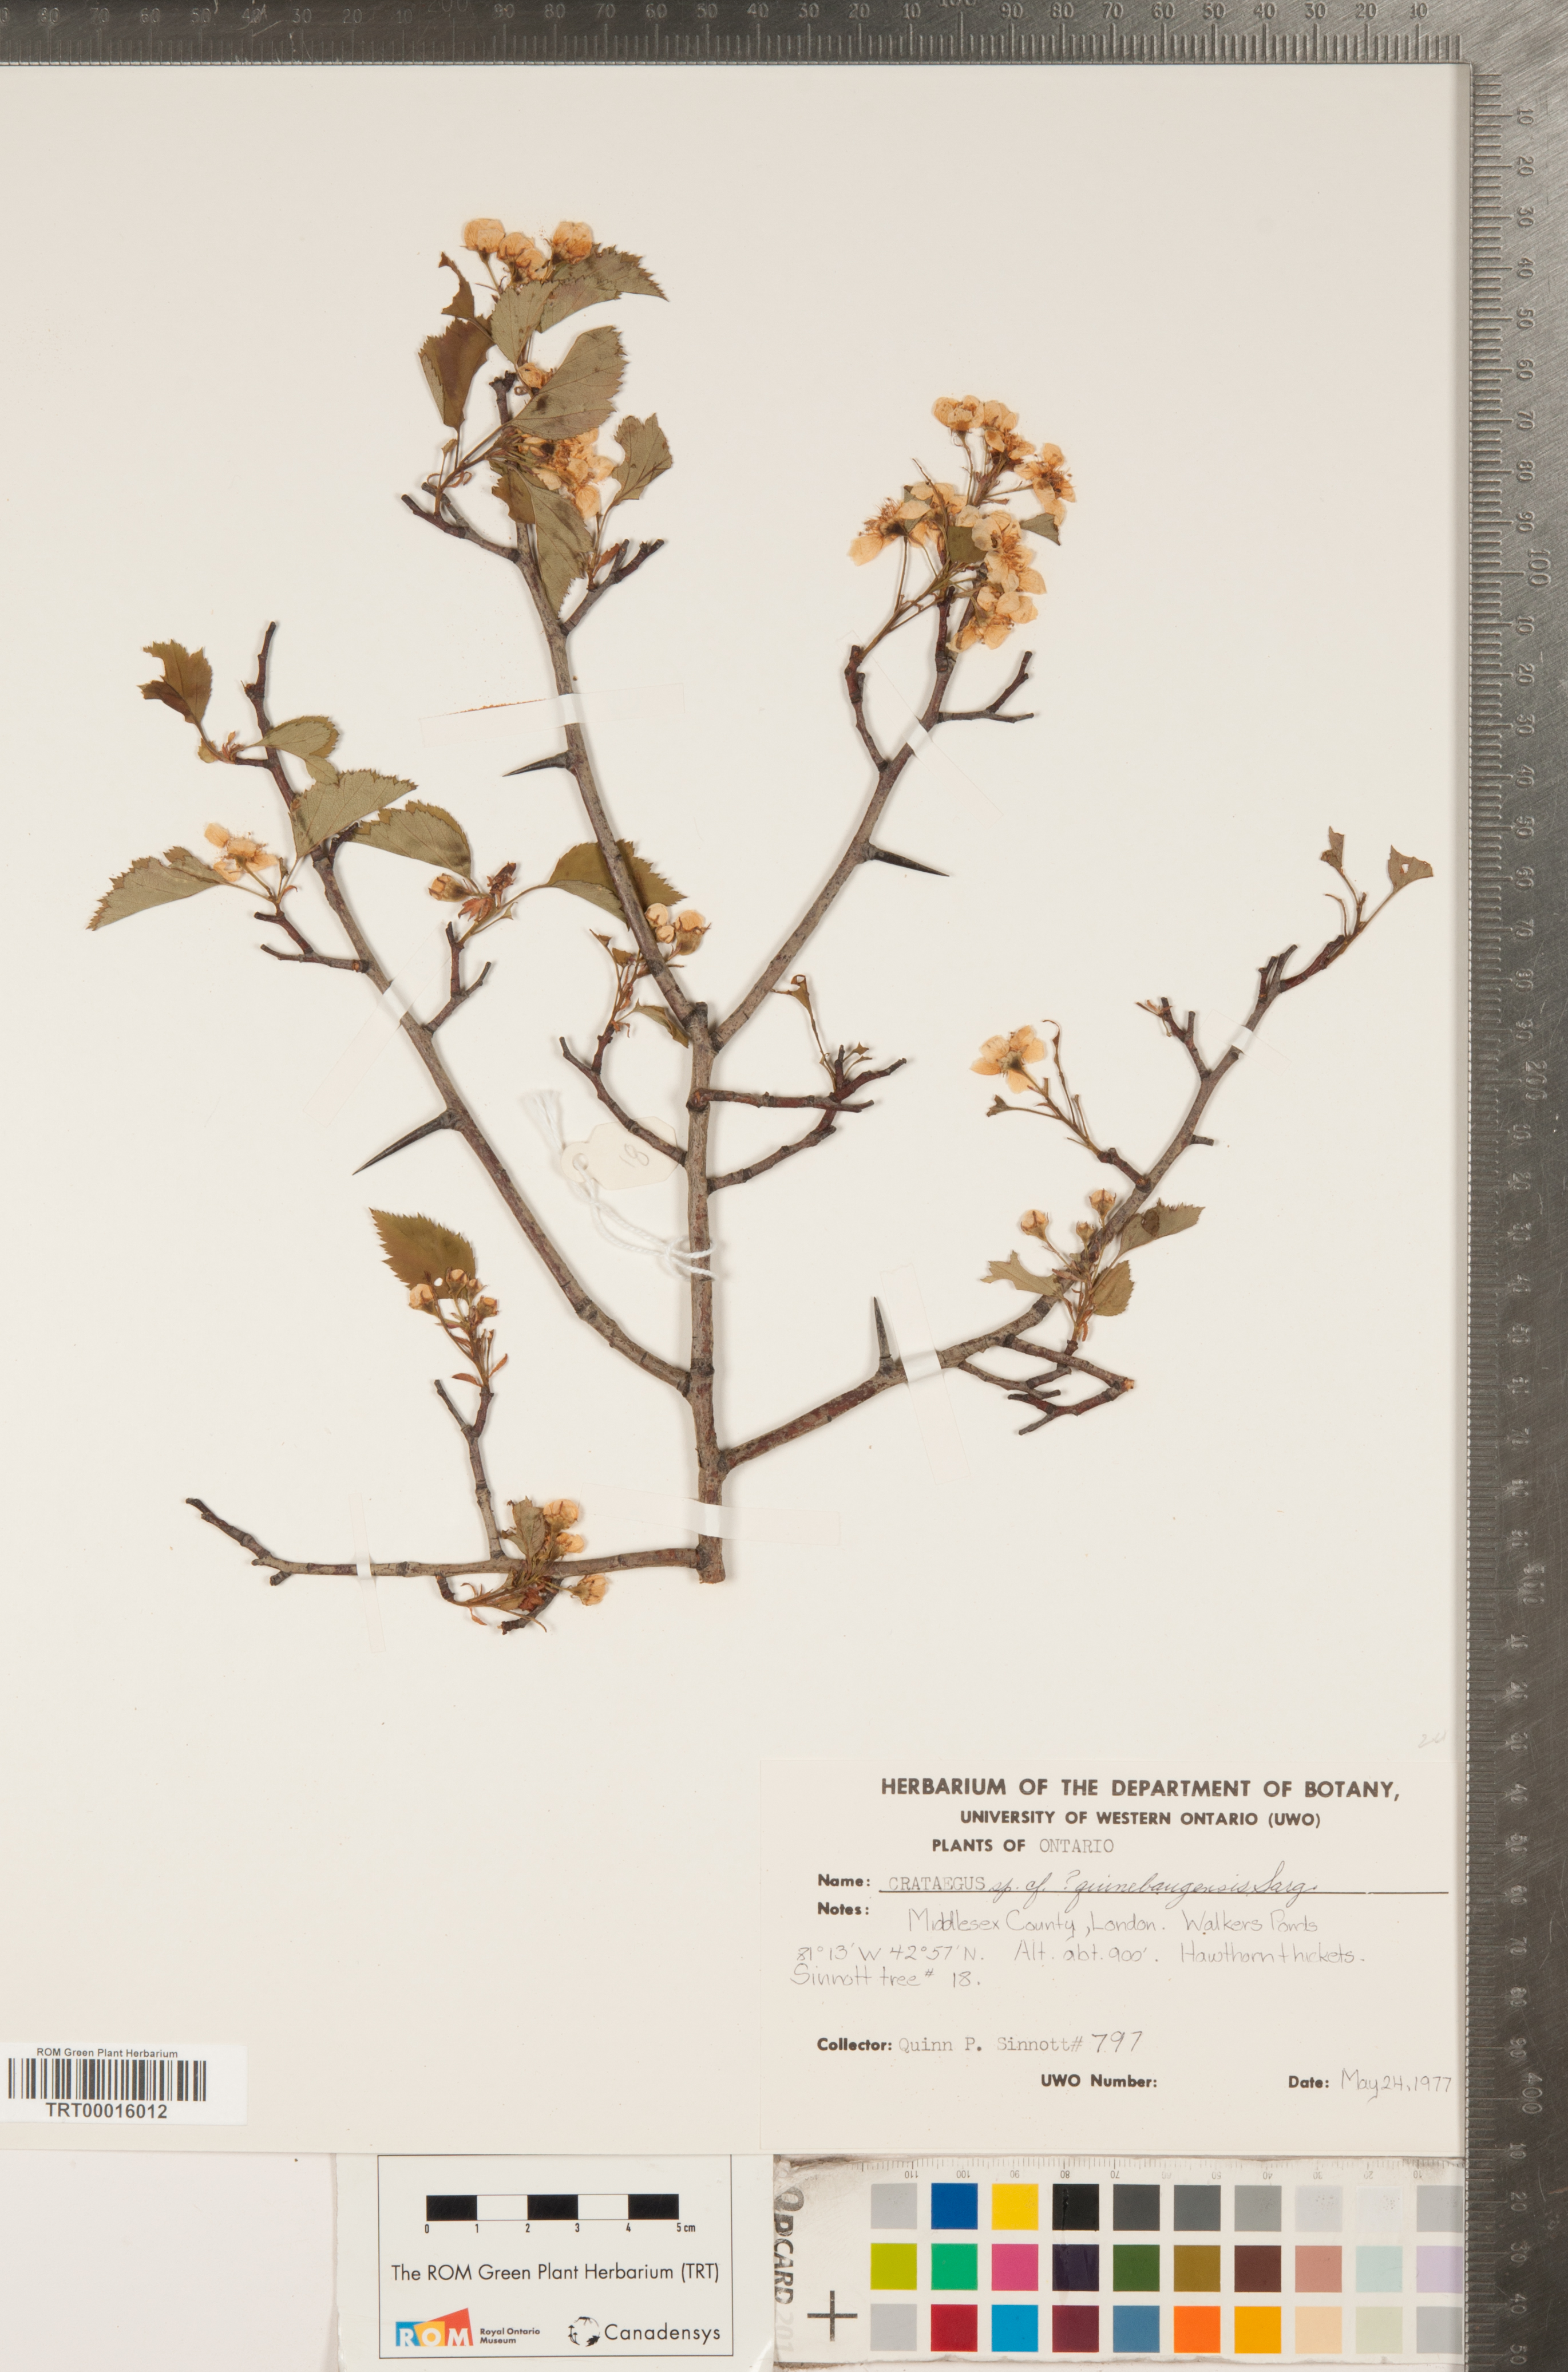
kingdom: Plantae
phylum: Tracheophyta
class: Magnoliopsida
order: Rosales
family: Rosaceae
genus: Crataegus
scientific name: Crataegus quinebaugensis
